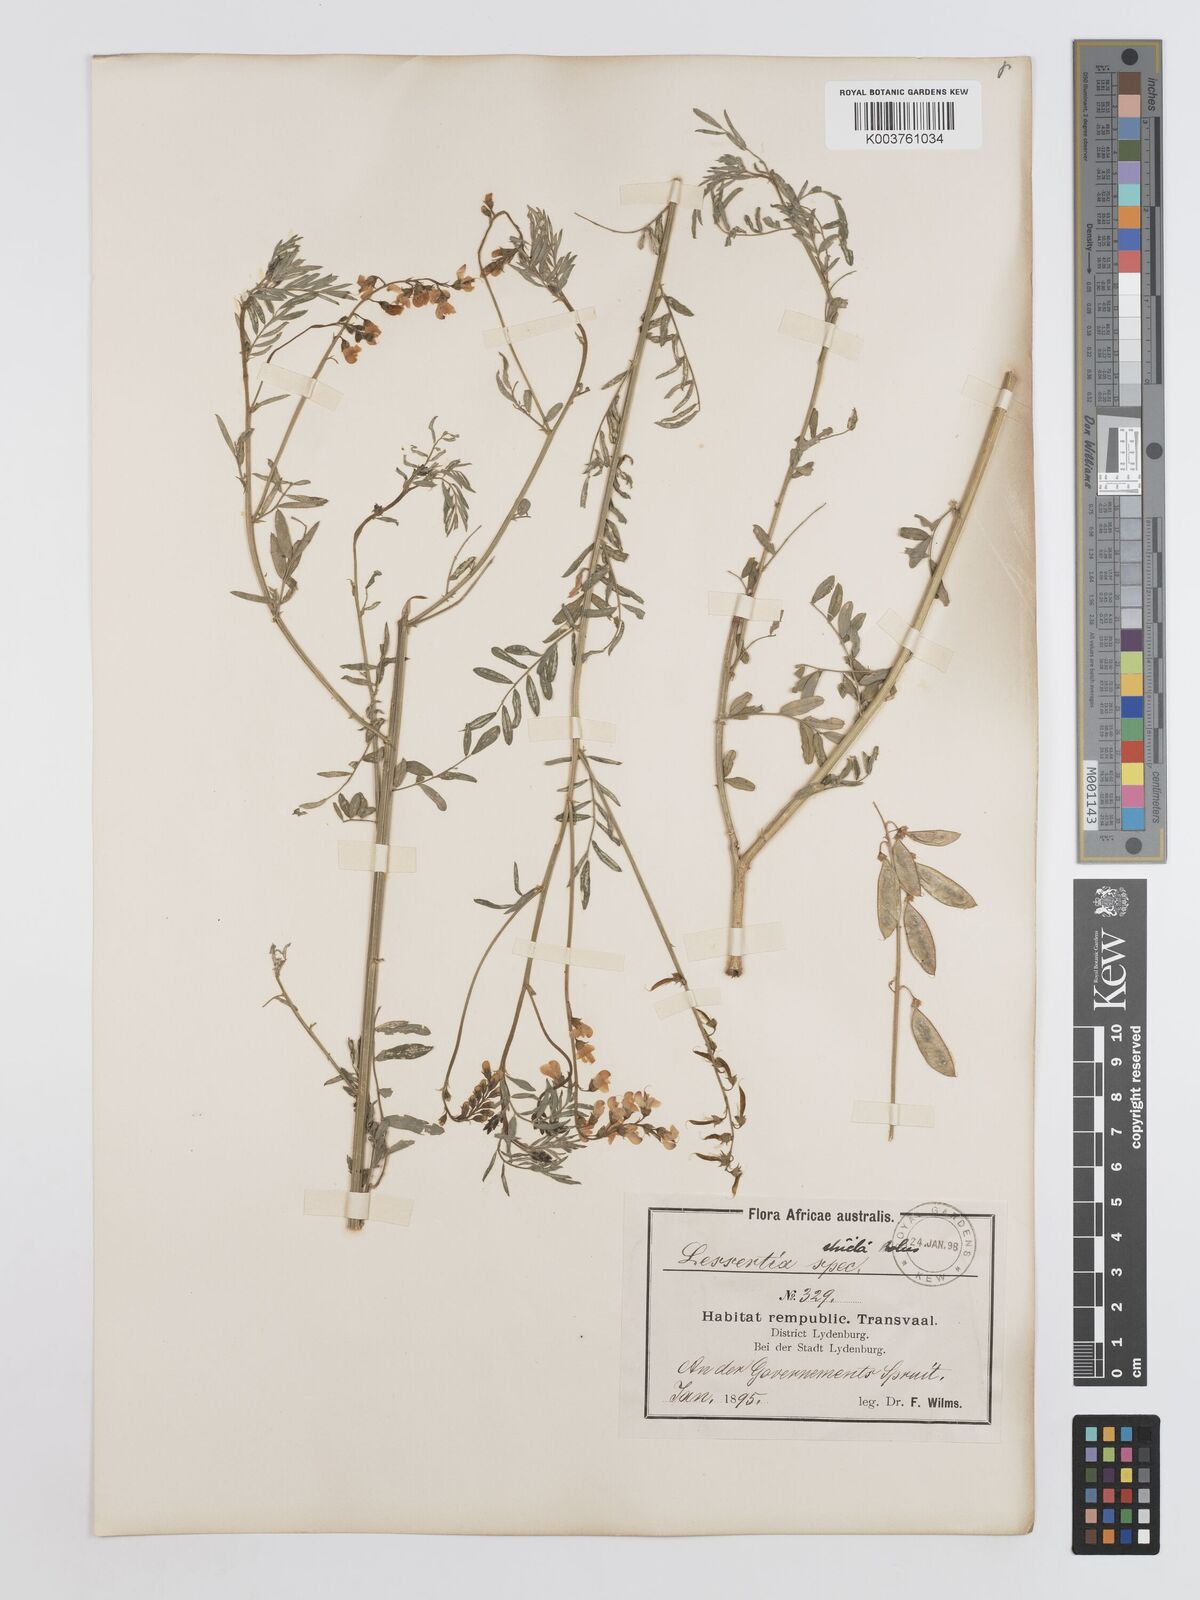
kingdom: Plantae
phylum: Tracheophyta
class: Magnoliopsida
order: Fabales
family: Fabaceae
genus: Lessertia
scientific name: Lessertia stricta
